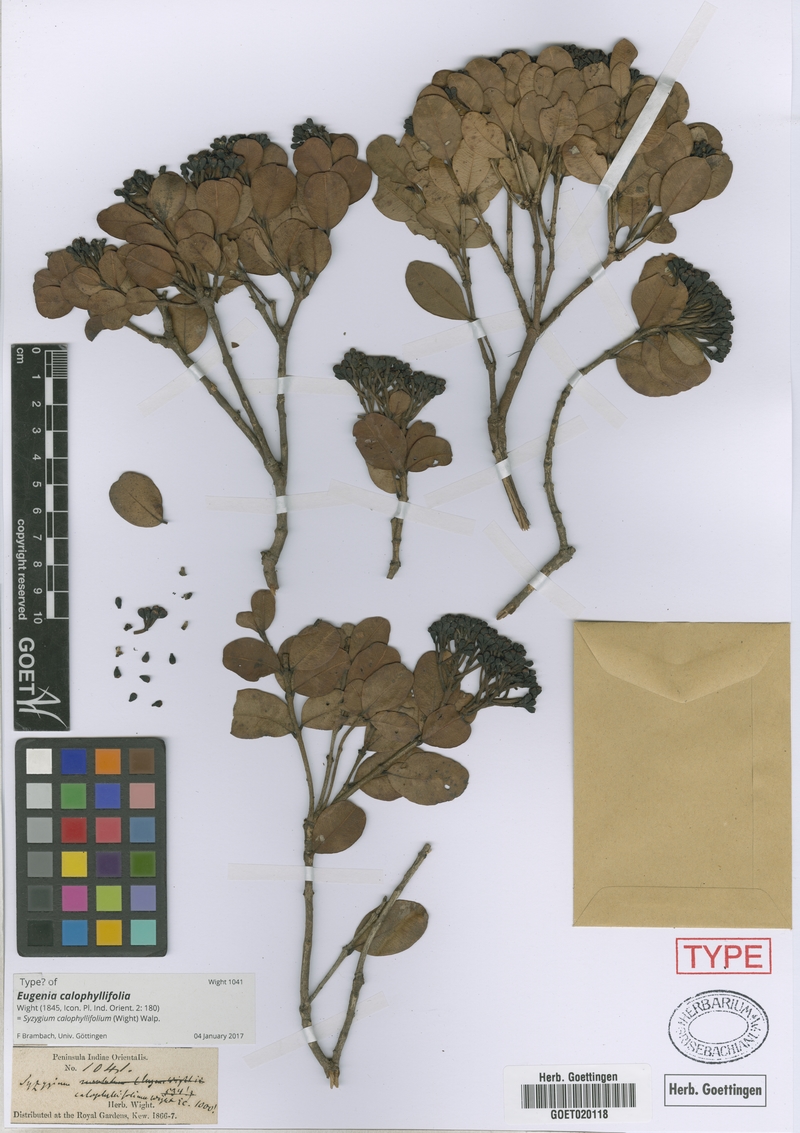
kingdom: Plantae
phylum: Tracheophyta
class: Magnoliopsida
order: Myrtales
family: Myrtaceae
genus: Syzygium
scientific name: Syzygium calophyllifolium
